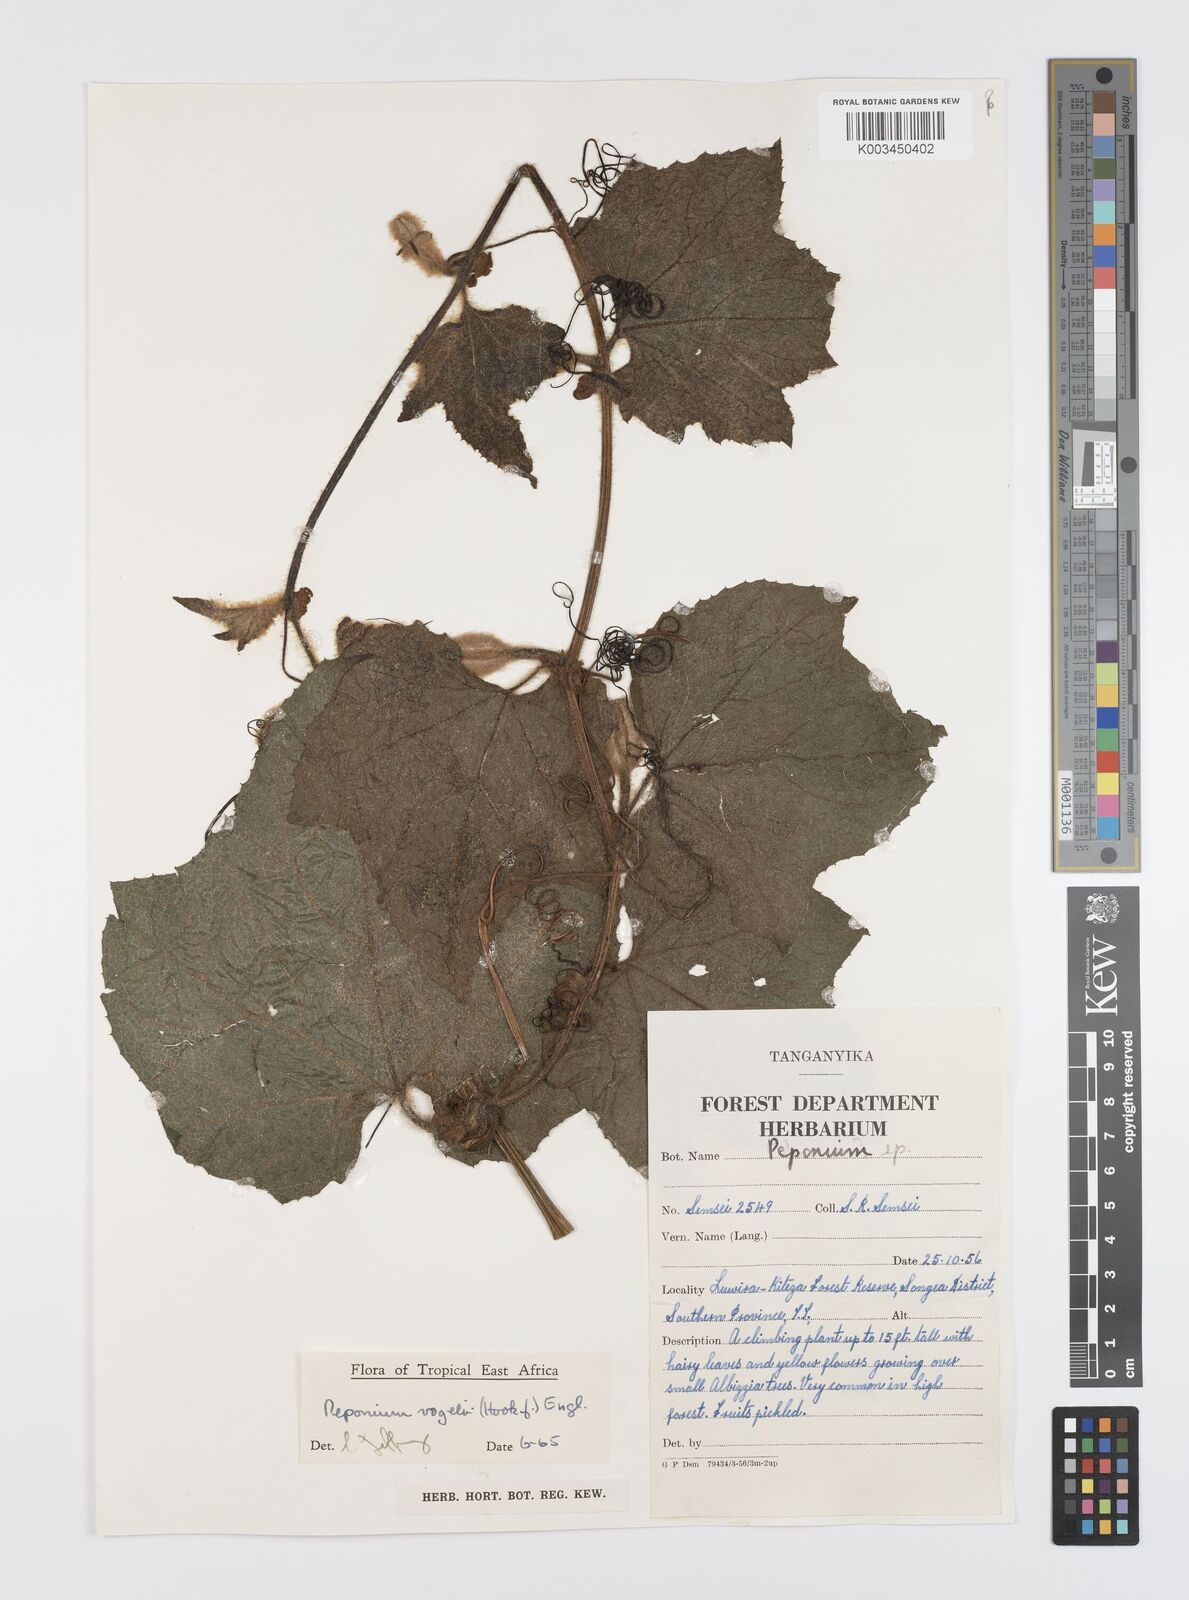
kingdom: Plantae
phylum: Tracheophyta
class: Magnoliopsida
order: Cucurbitales
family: Cucurbitaceae
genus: Peponium
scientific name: Peponium vogelii
